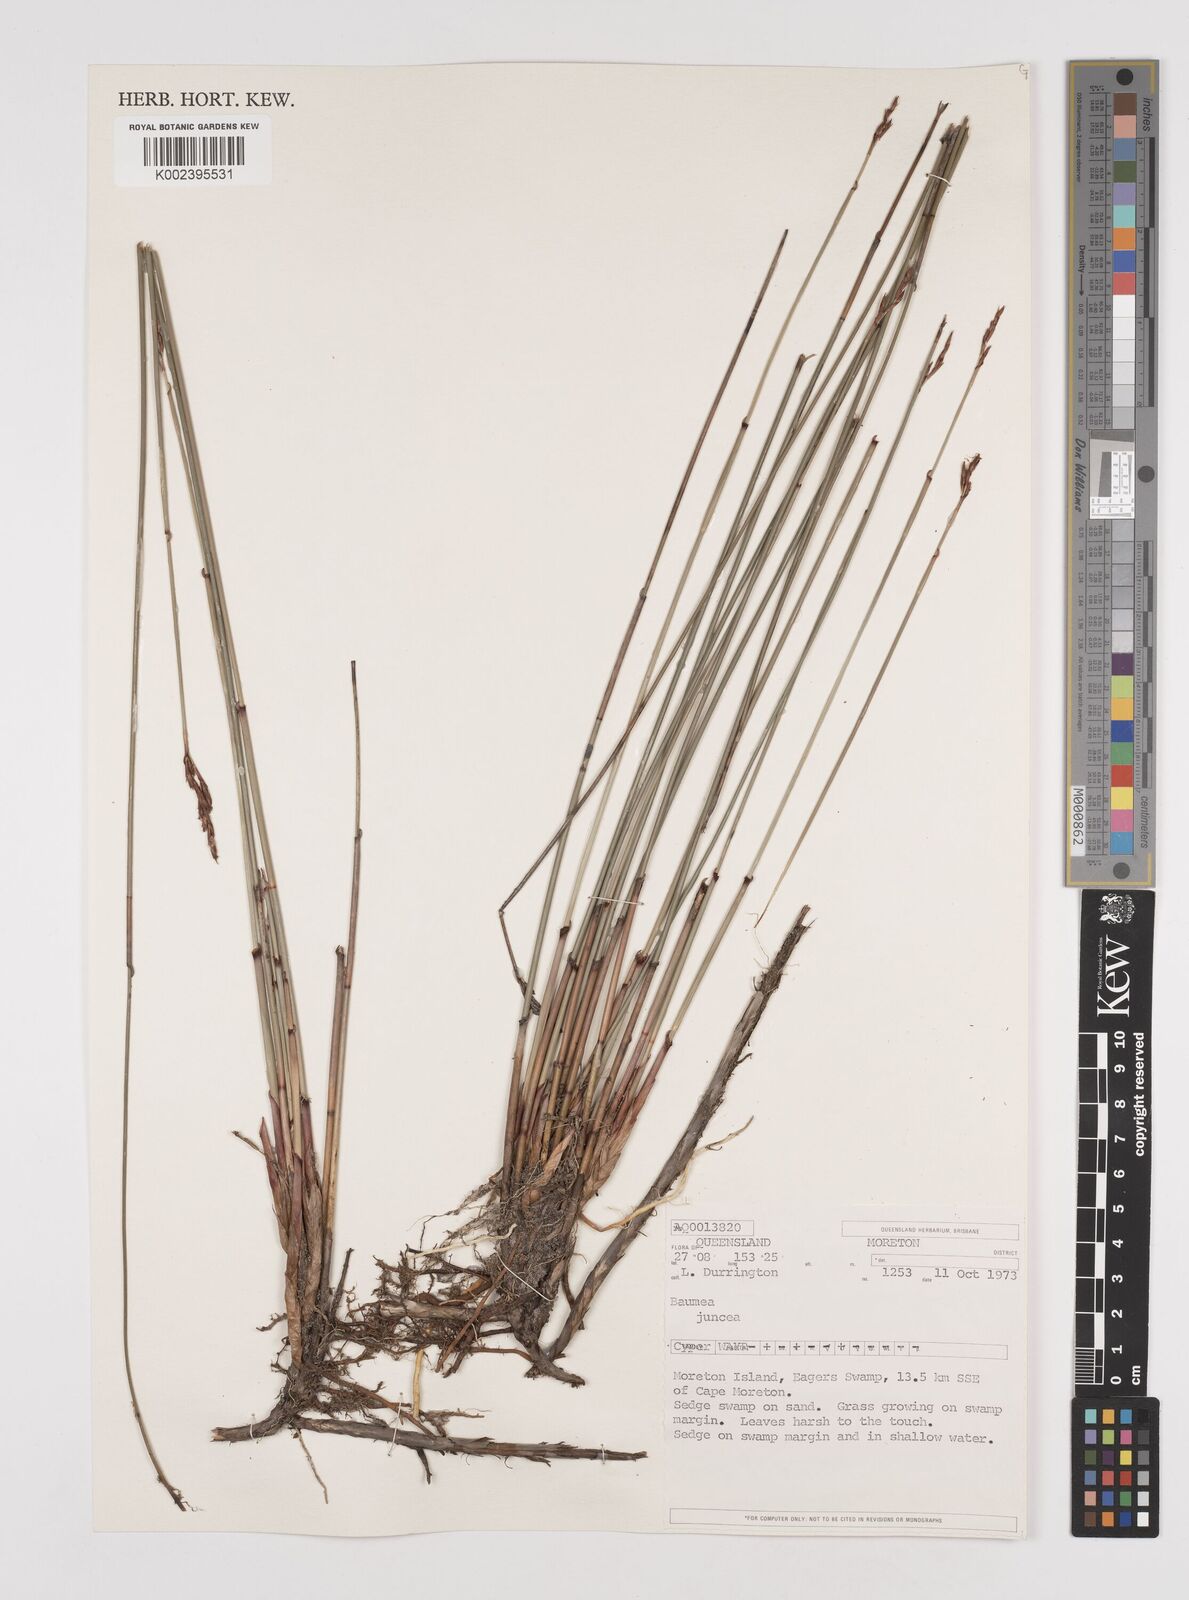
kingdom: Plantae
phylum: Tracheophyta
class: Liliopsida
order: Poales
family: Cyperaceae
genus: Machaerina
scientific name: Machaerina juncea
